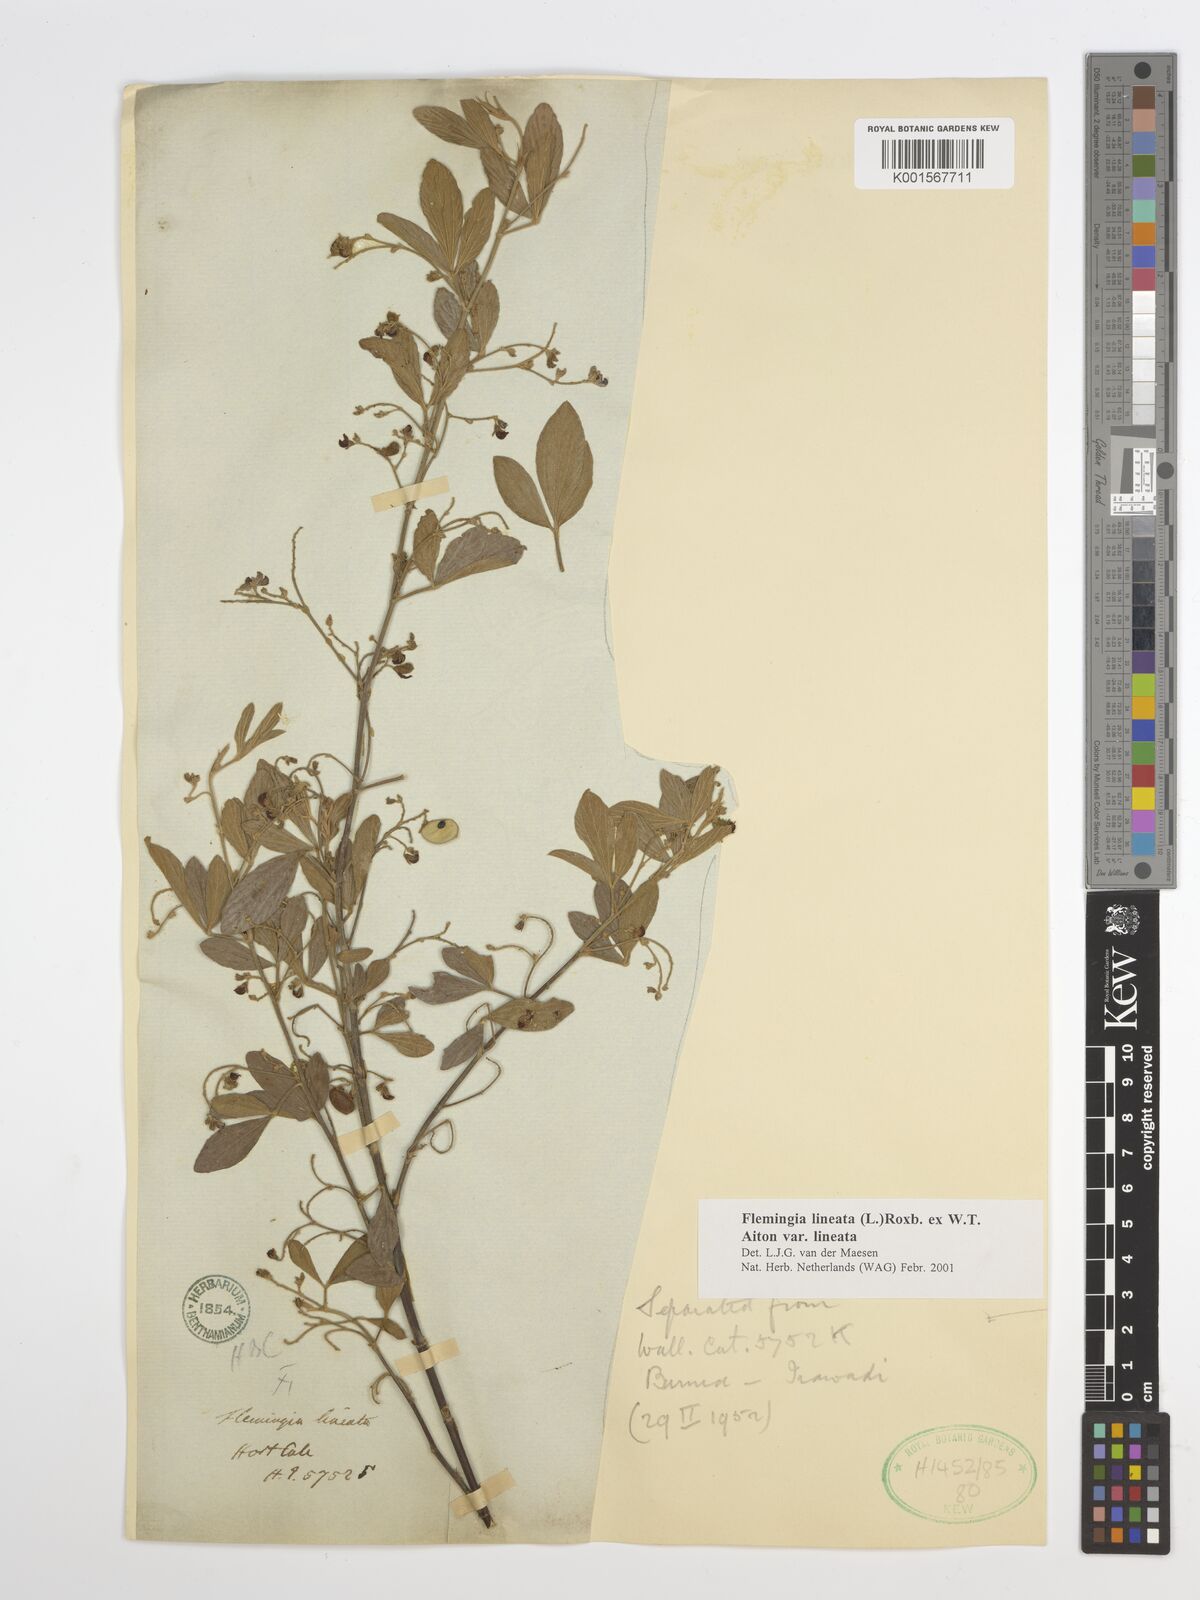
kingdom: Plantae
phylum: Tracheophyta
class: Magnoliopsida
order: Fabales
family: Fabaceae
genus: Flemingia
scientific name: Flemingia lineata
